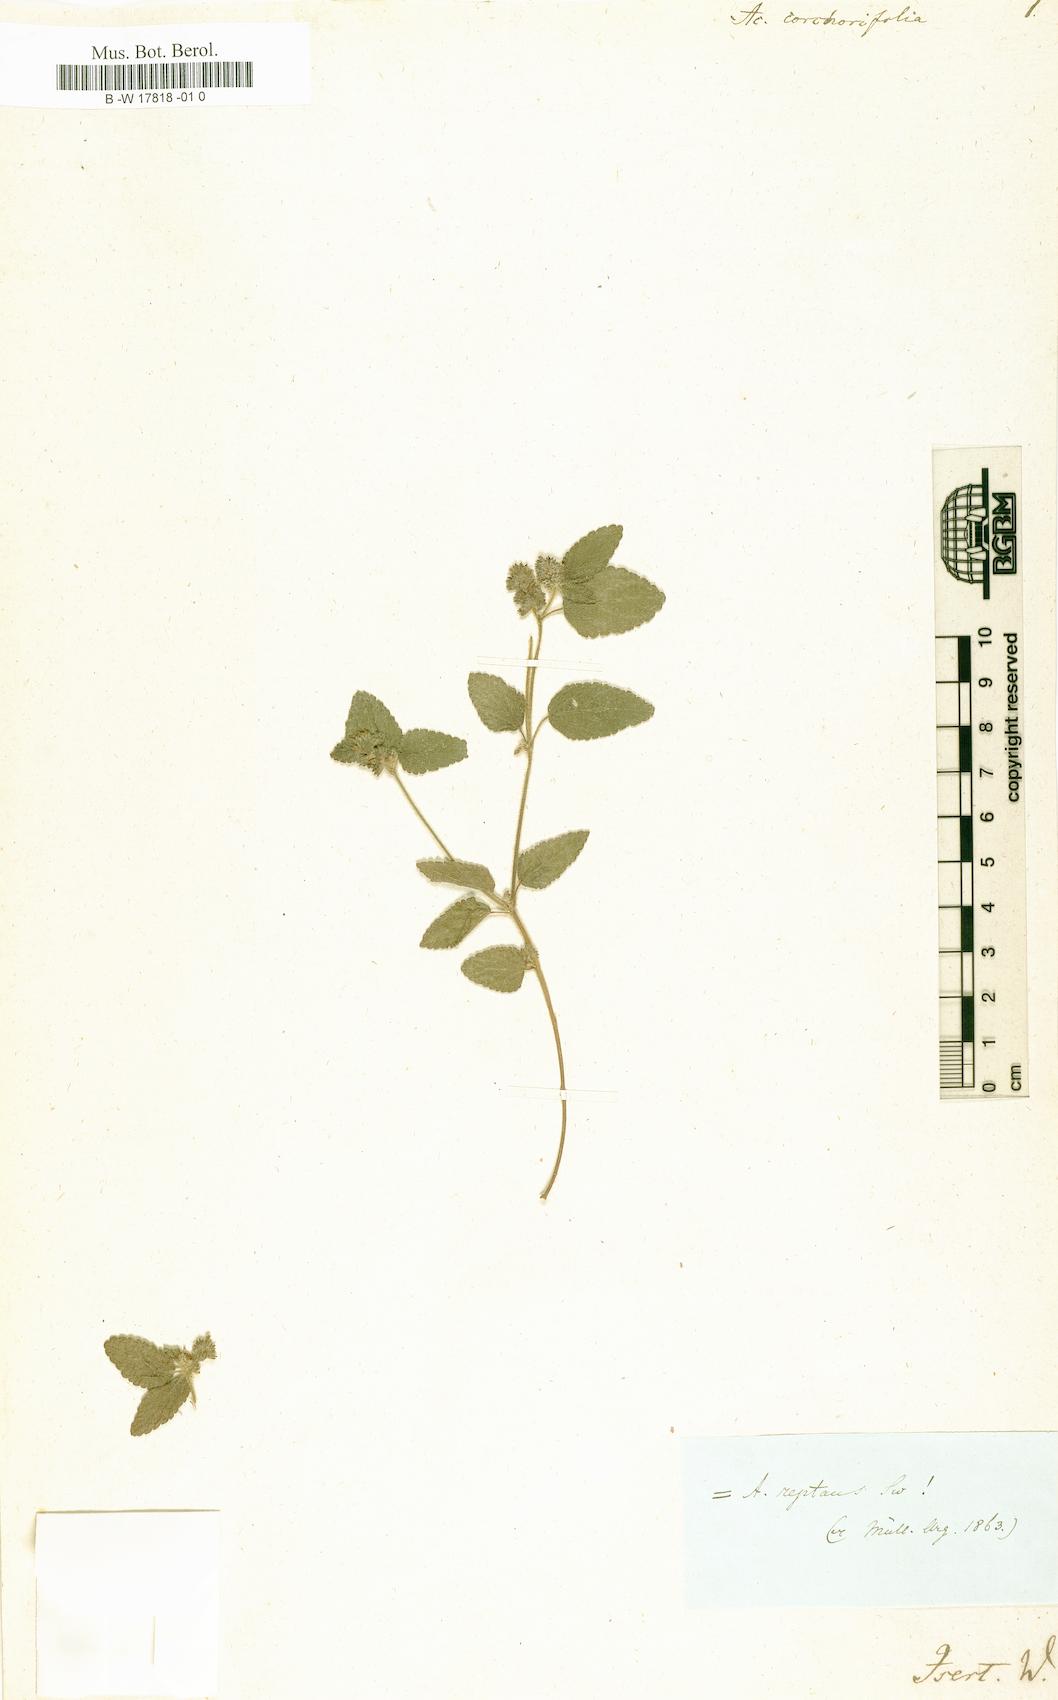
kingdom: Plantae
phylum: Tracheophyta
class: Magnoliopsida
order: Malpighiales
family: Euphorbiaceae
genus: Acalypha
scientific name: Acalypha chamaedrifolia
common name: Bastard copperleaf
